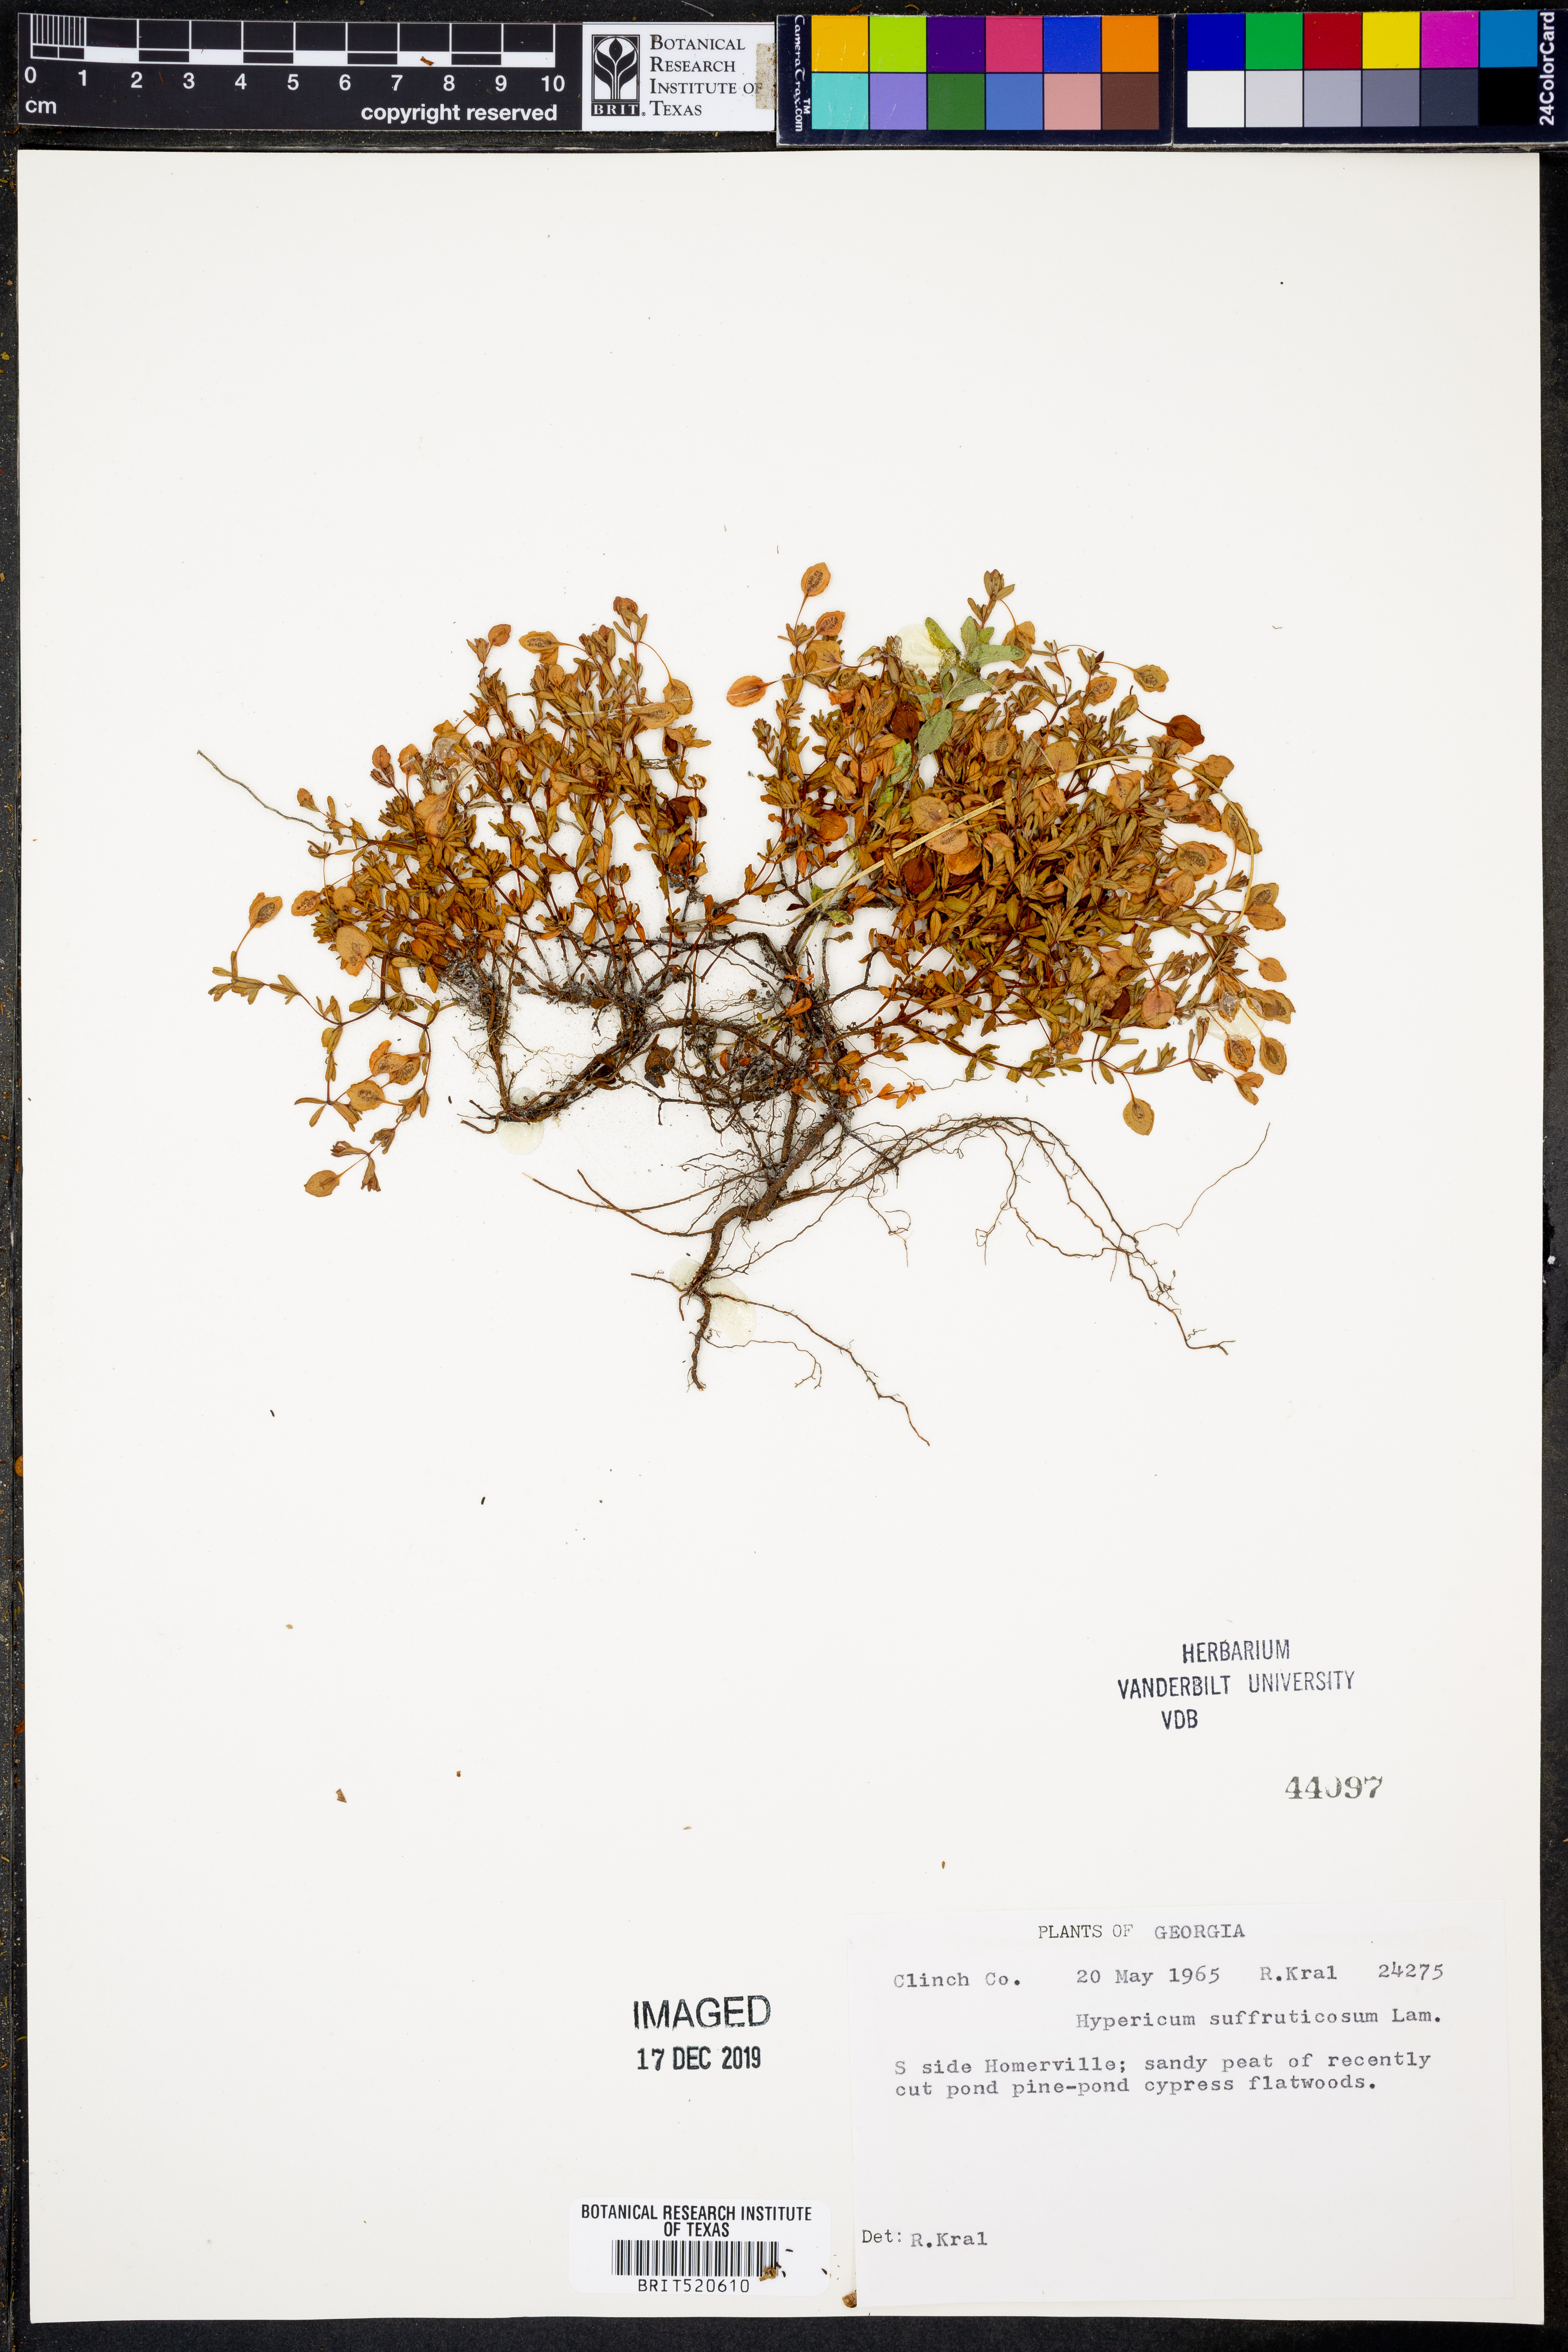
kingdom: Plantae
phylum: Tracheophyta
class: Magnoliopsida
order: Malpighiales
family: Hypericaceae
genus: Hypericum
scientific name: Hypericum suffruticosum
